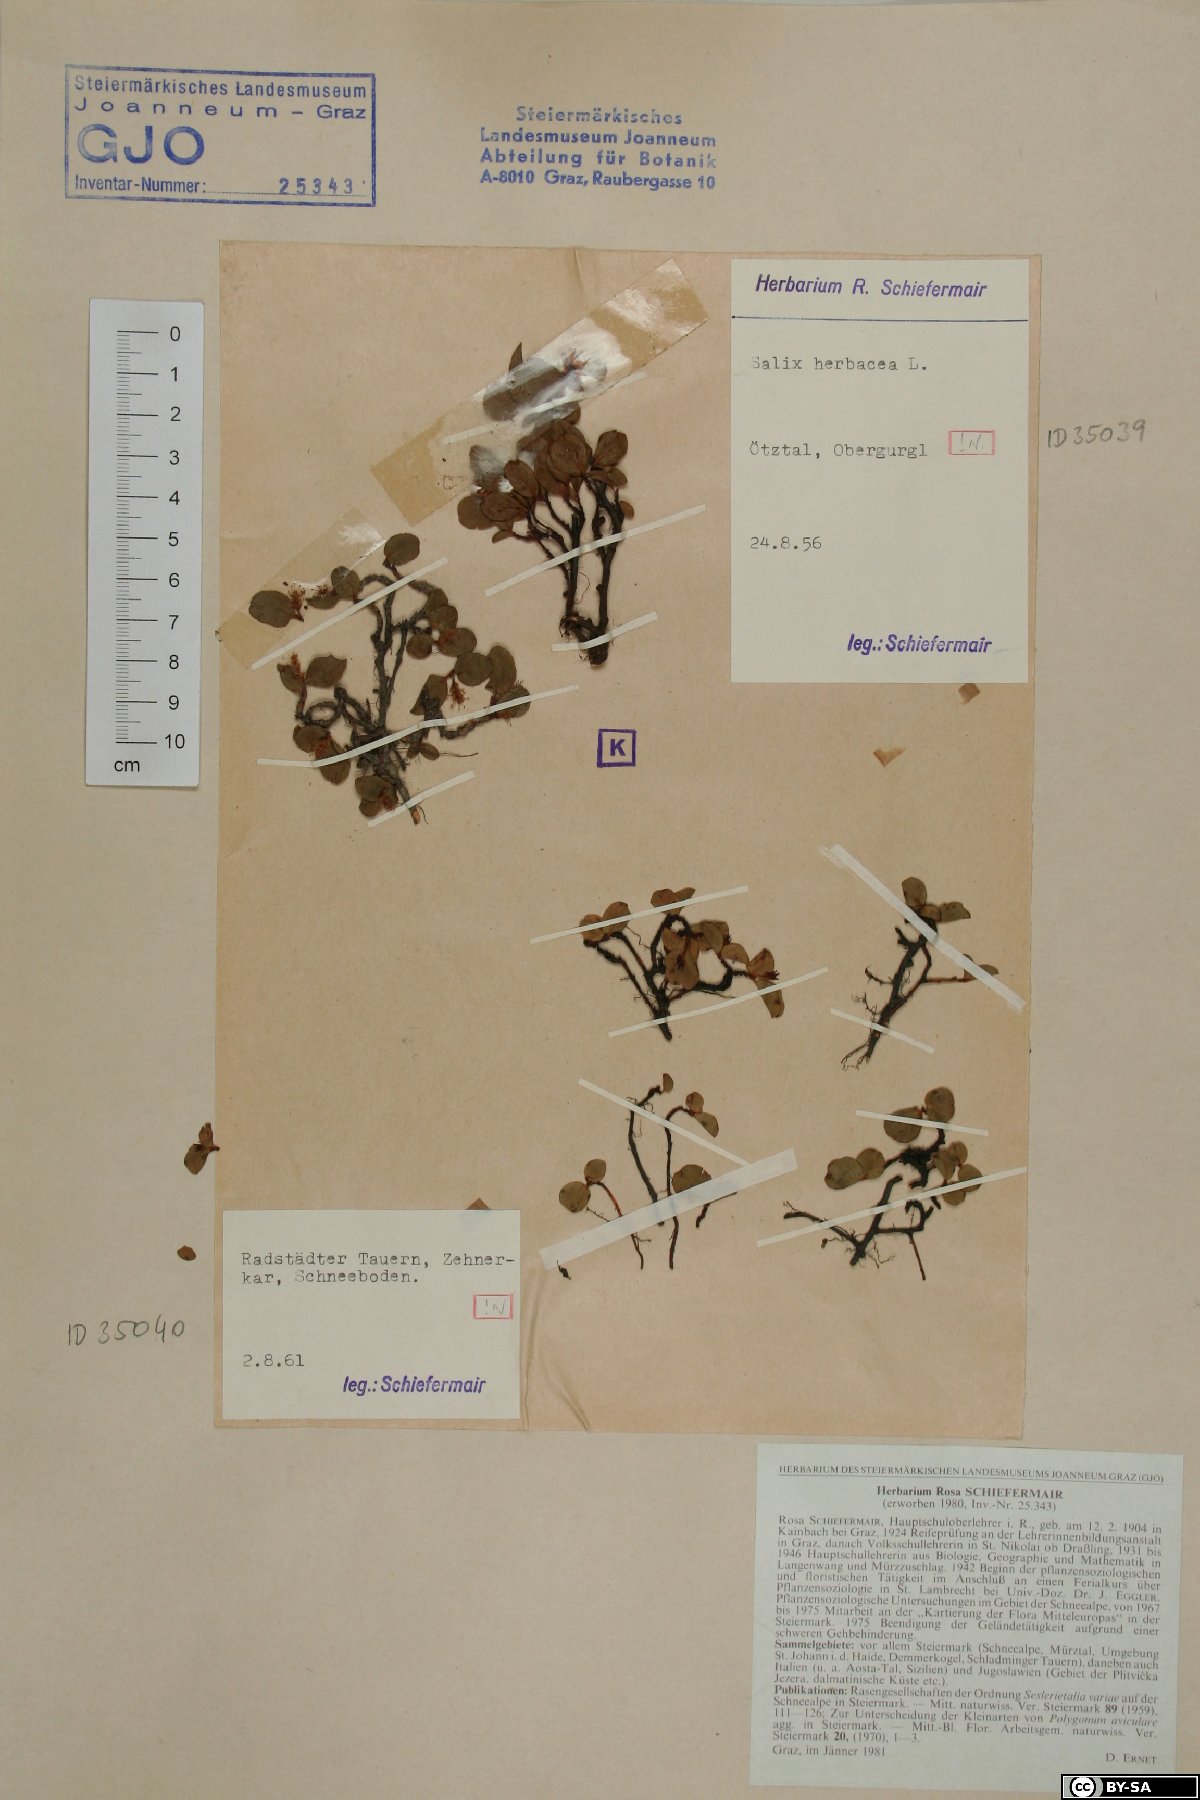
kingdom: Plantae
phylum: Tracheophyta
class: Magnoliopsida
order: Malpighiales
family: Salicaceae
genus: Salix
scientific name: Salix herbacea
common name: Dwarf willow
